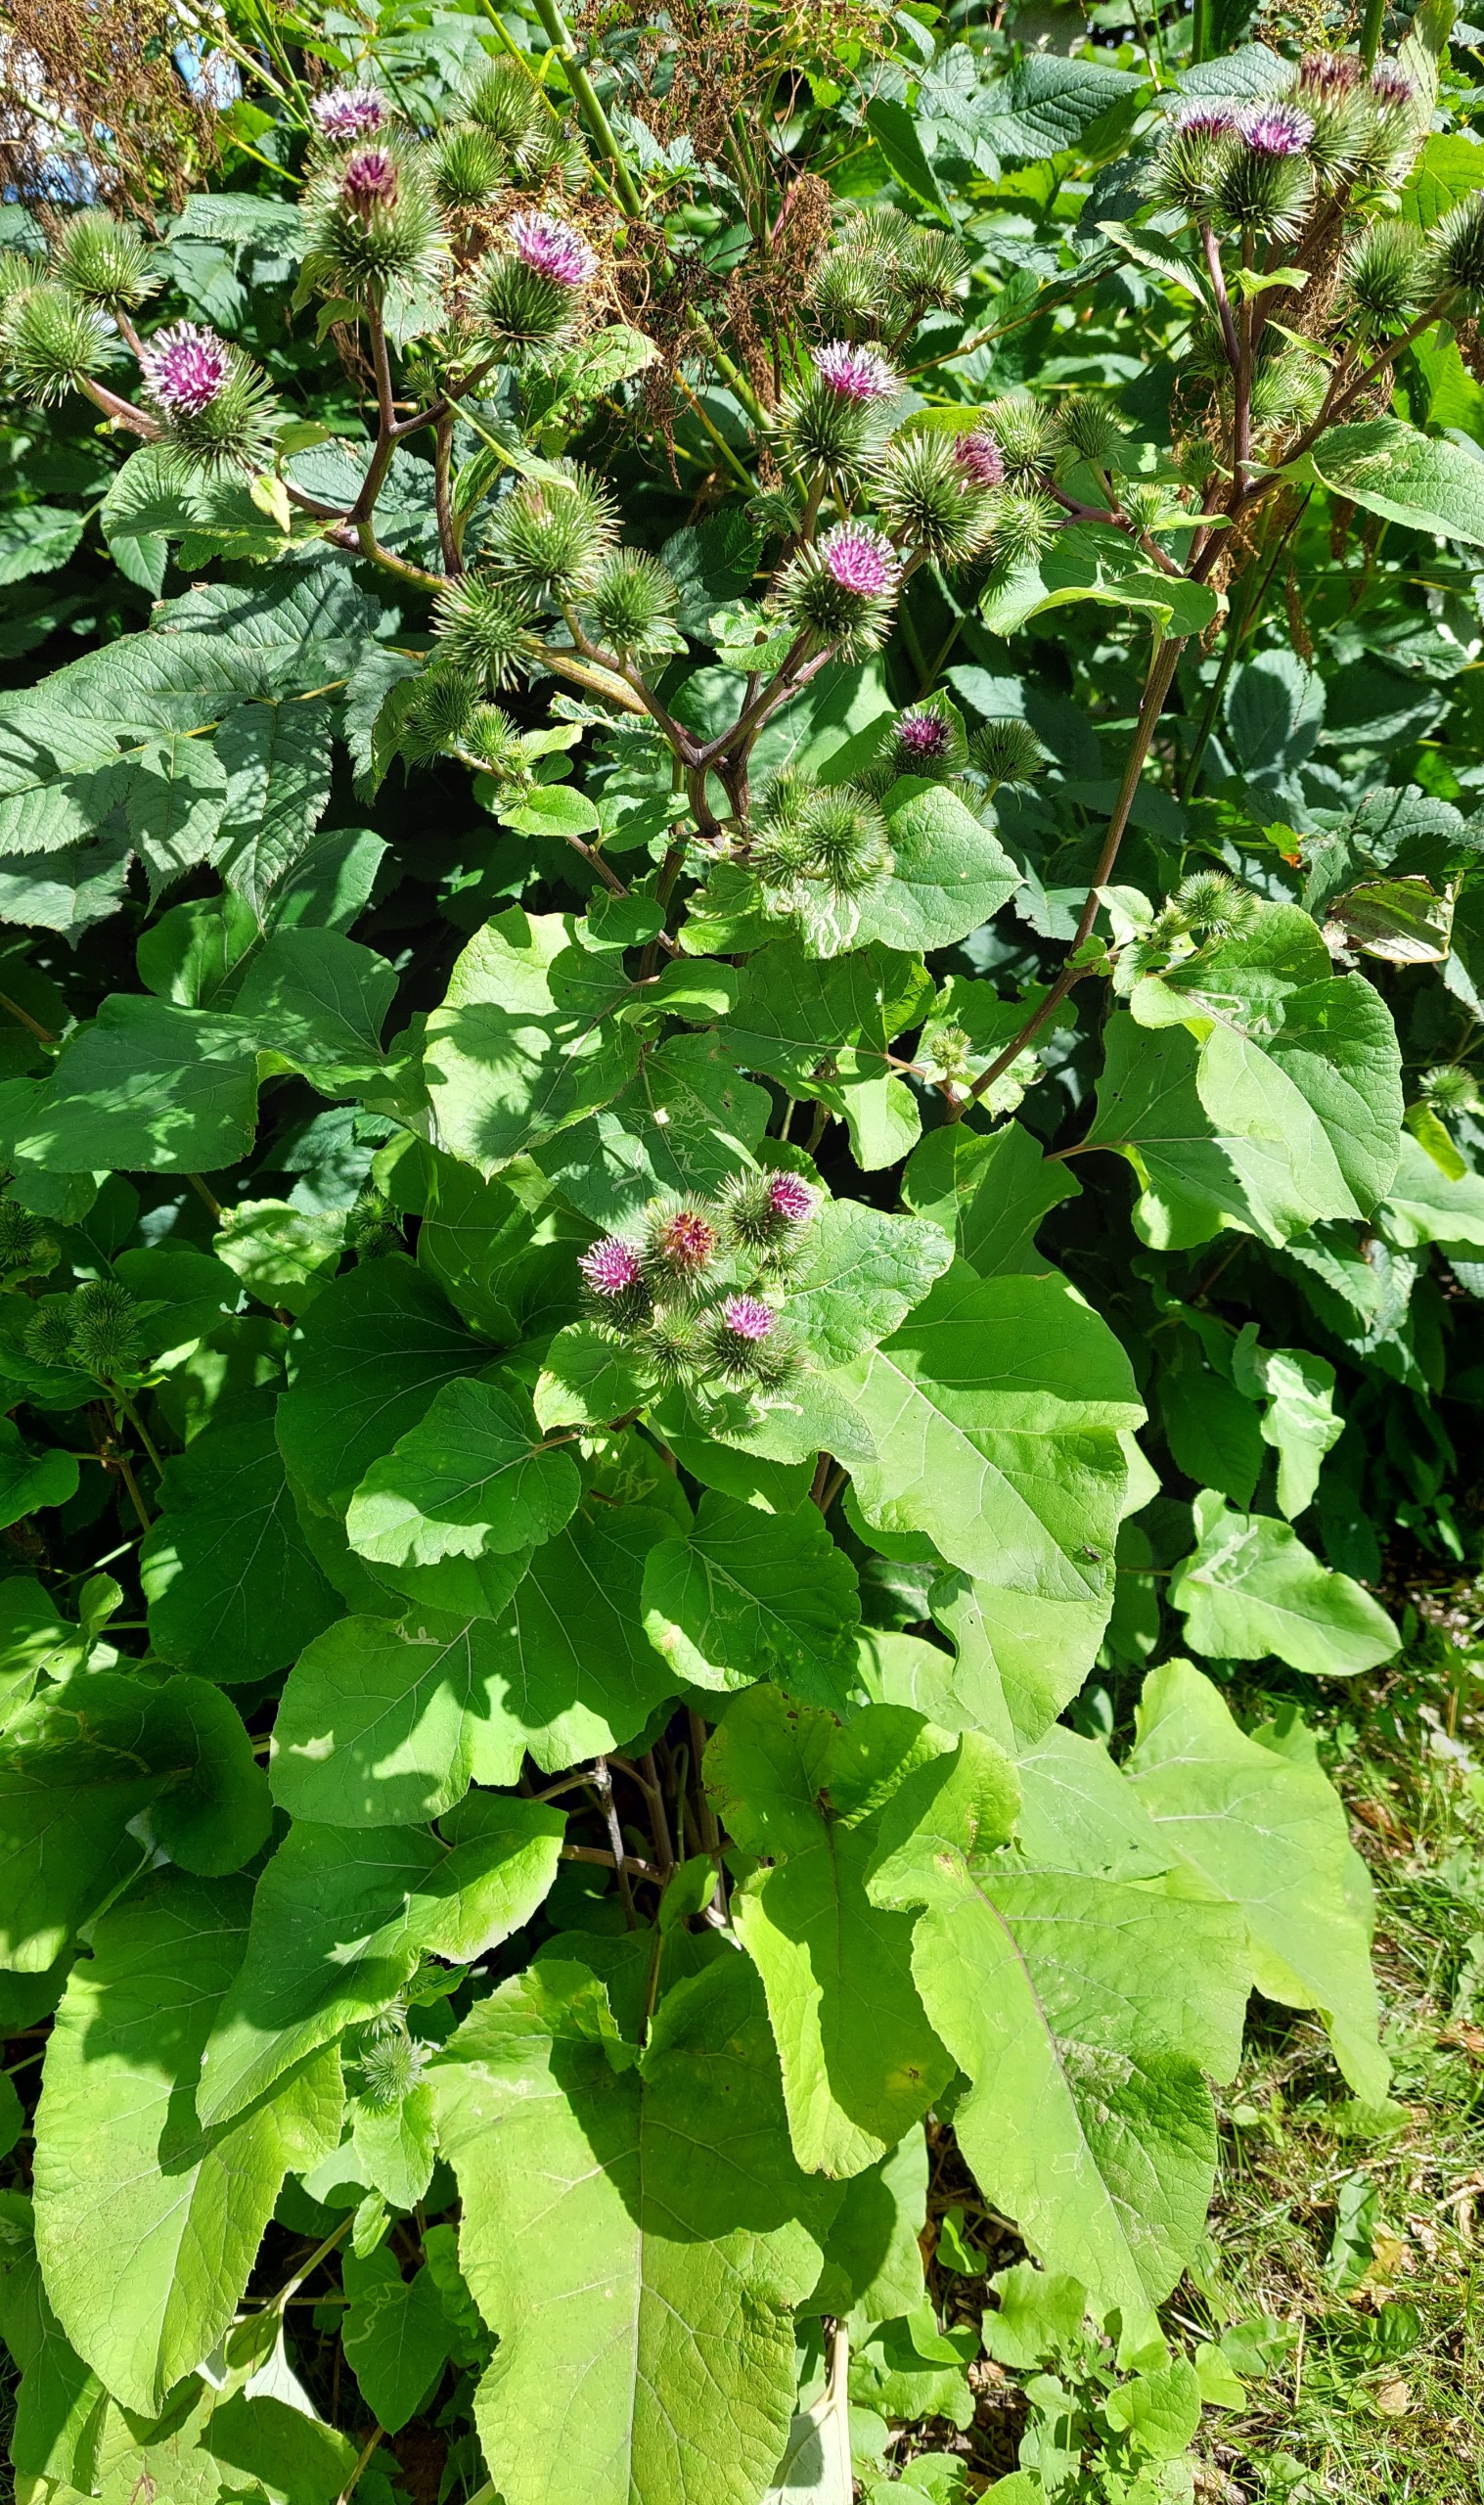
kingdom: Plantae
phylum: Tracheophyta
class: Magnoliopsida
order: Asterales
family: Asteraceae
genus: Arctium
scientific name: Arctium lappa
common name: Glat burre
